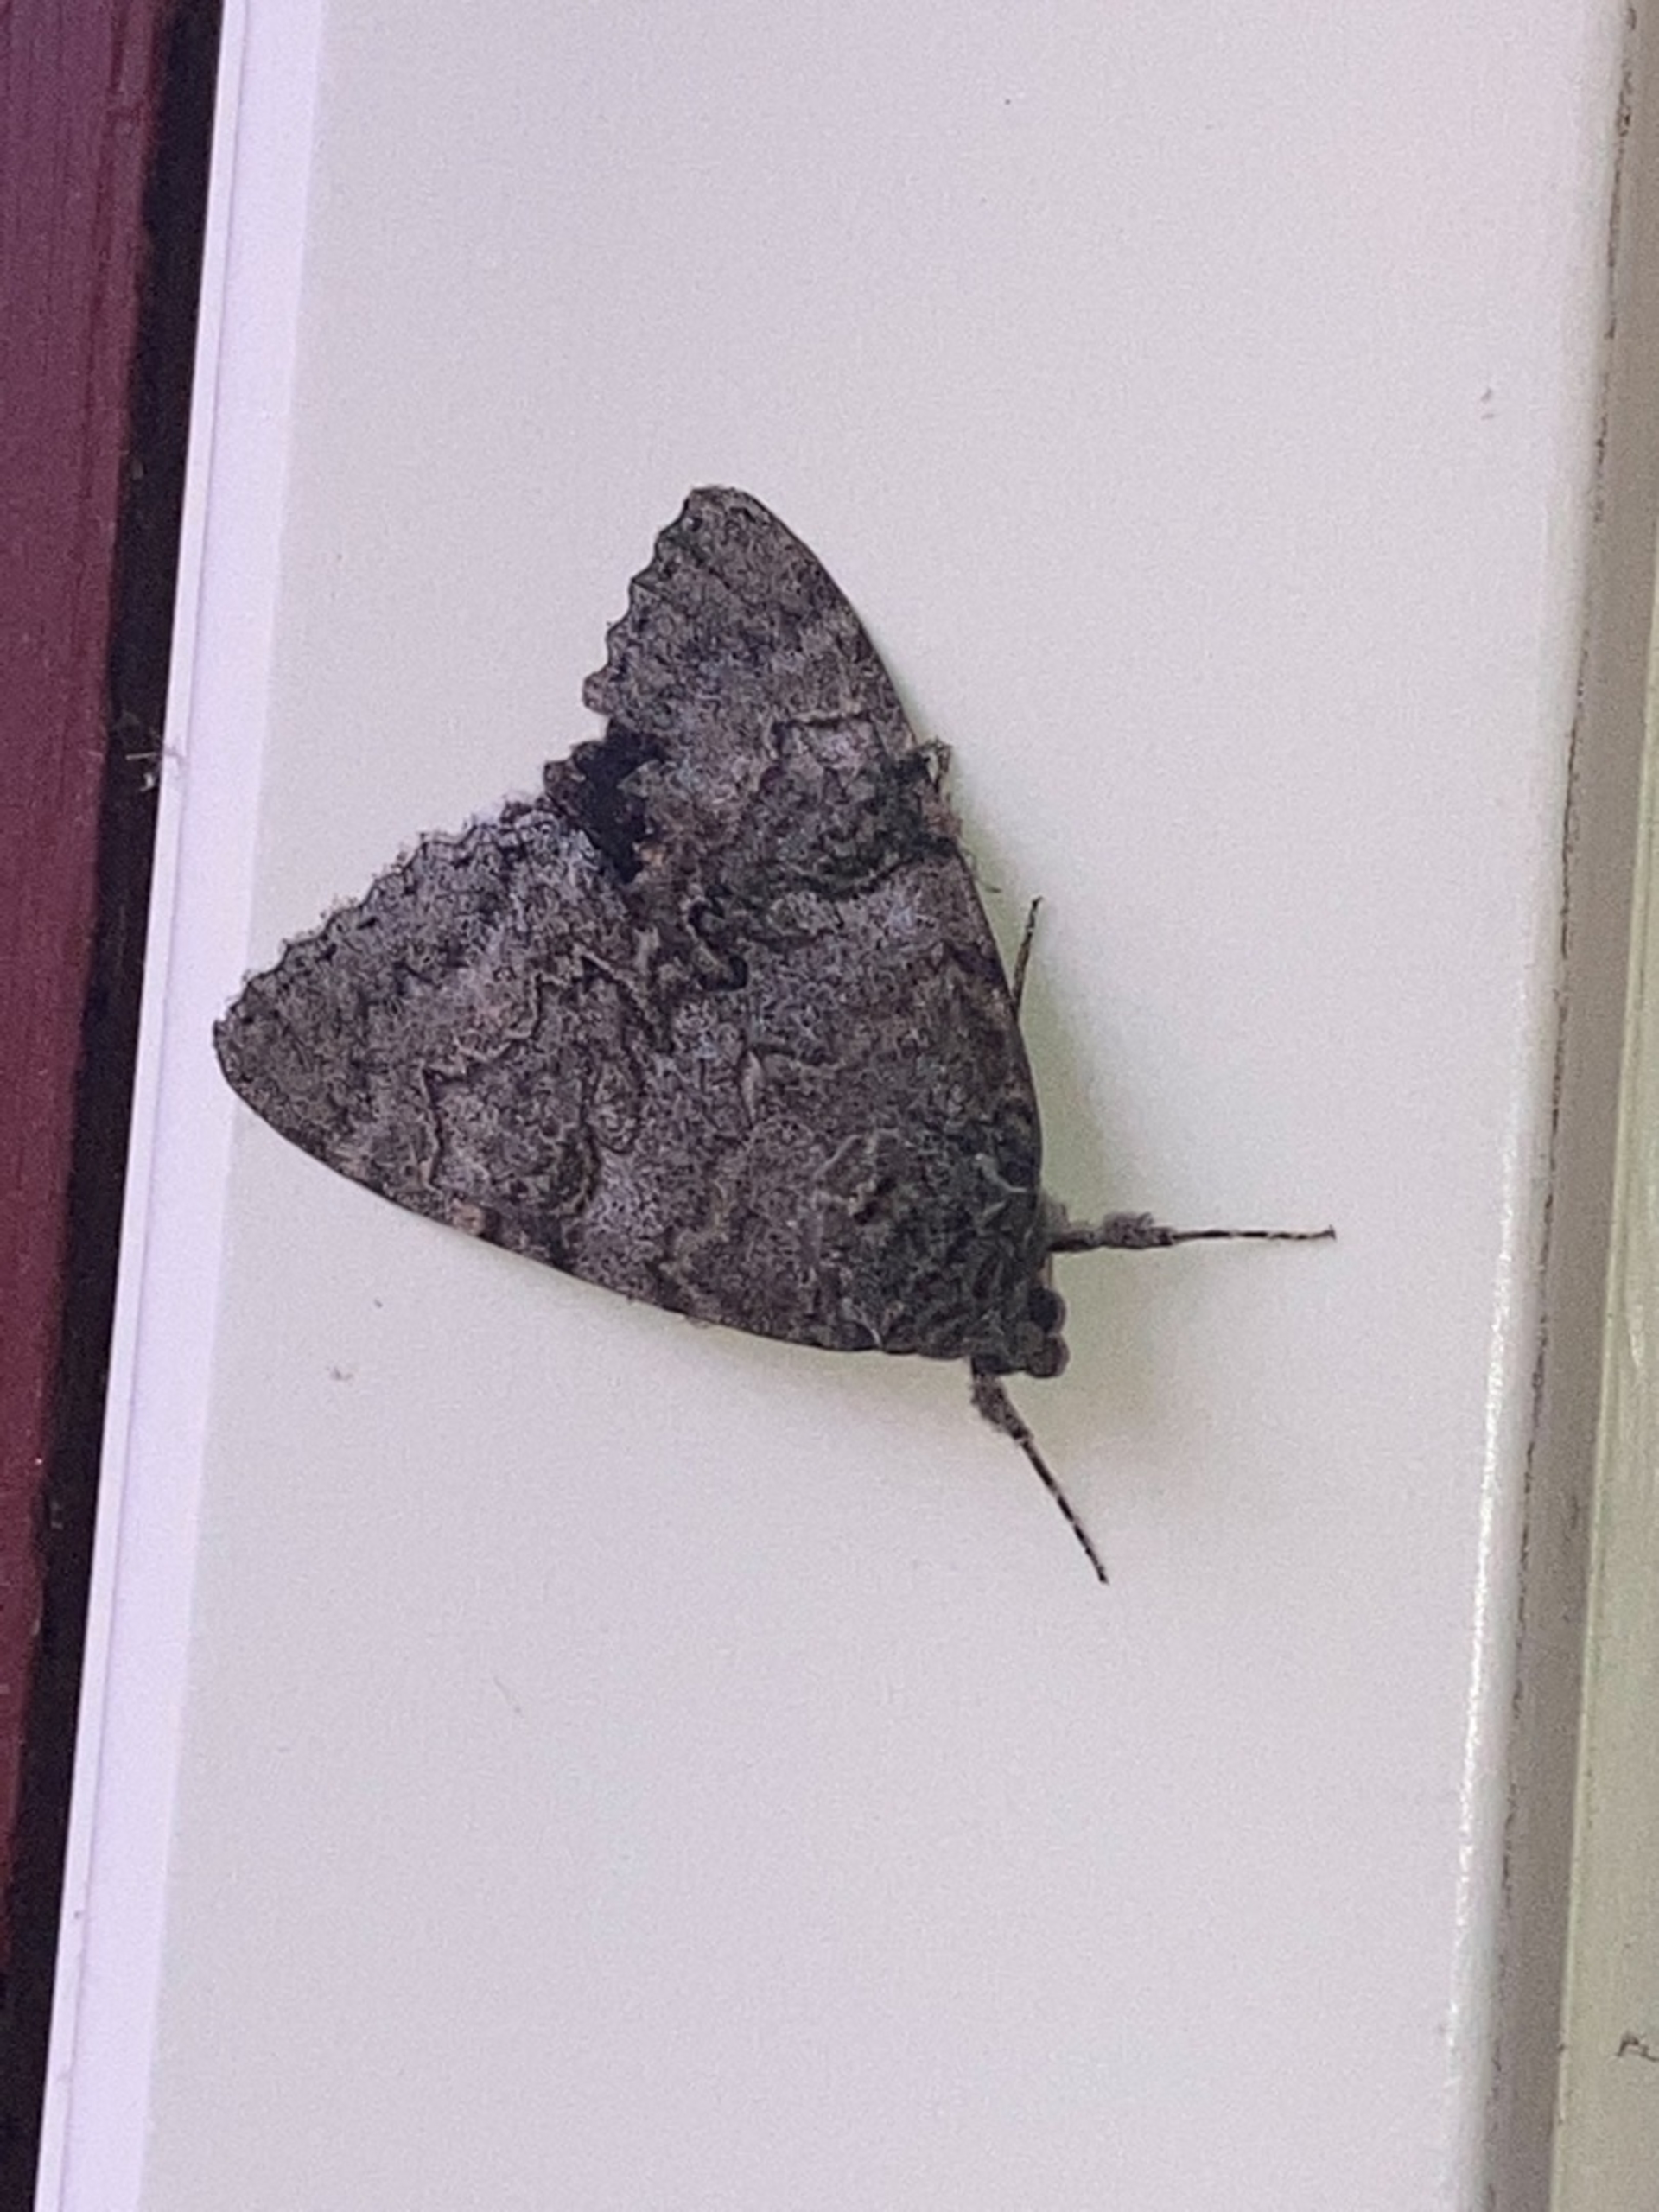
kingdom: Animalia
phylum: Arthropoda
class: Insecta
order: Lepidoptera
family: Erebidae
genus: Catocala
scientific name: Catocala nupta
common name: Rødt ordensbånd
